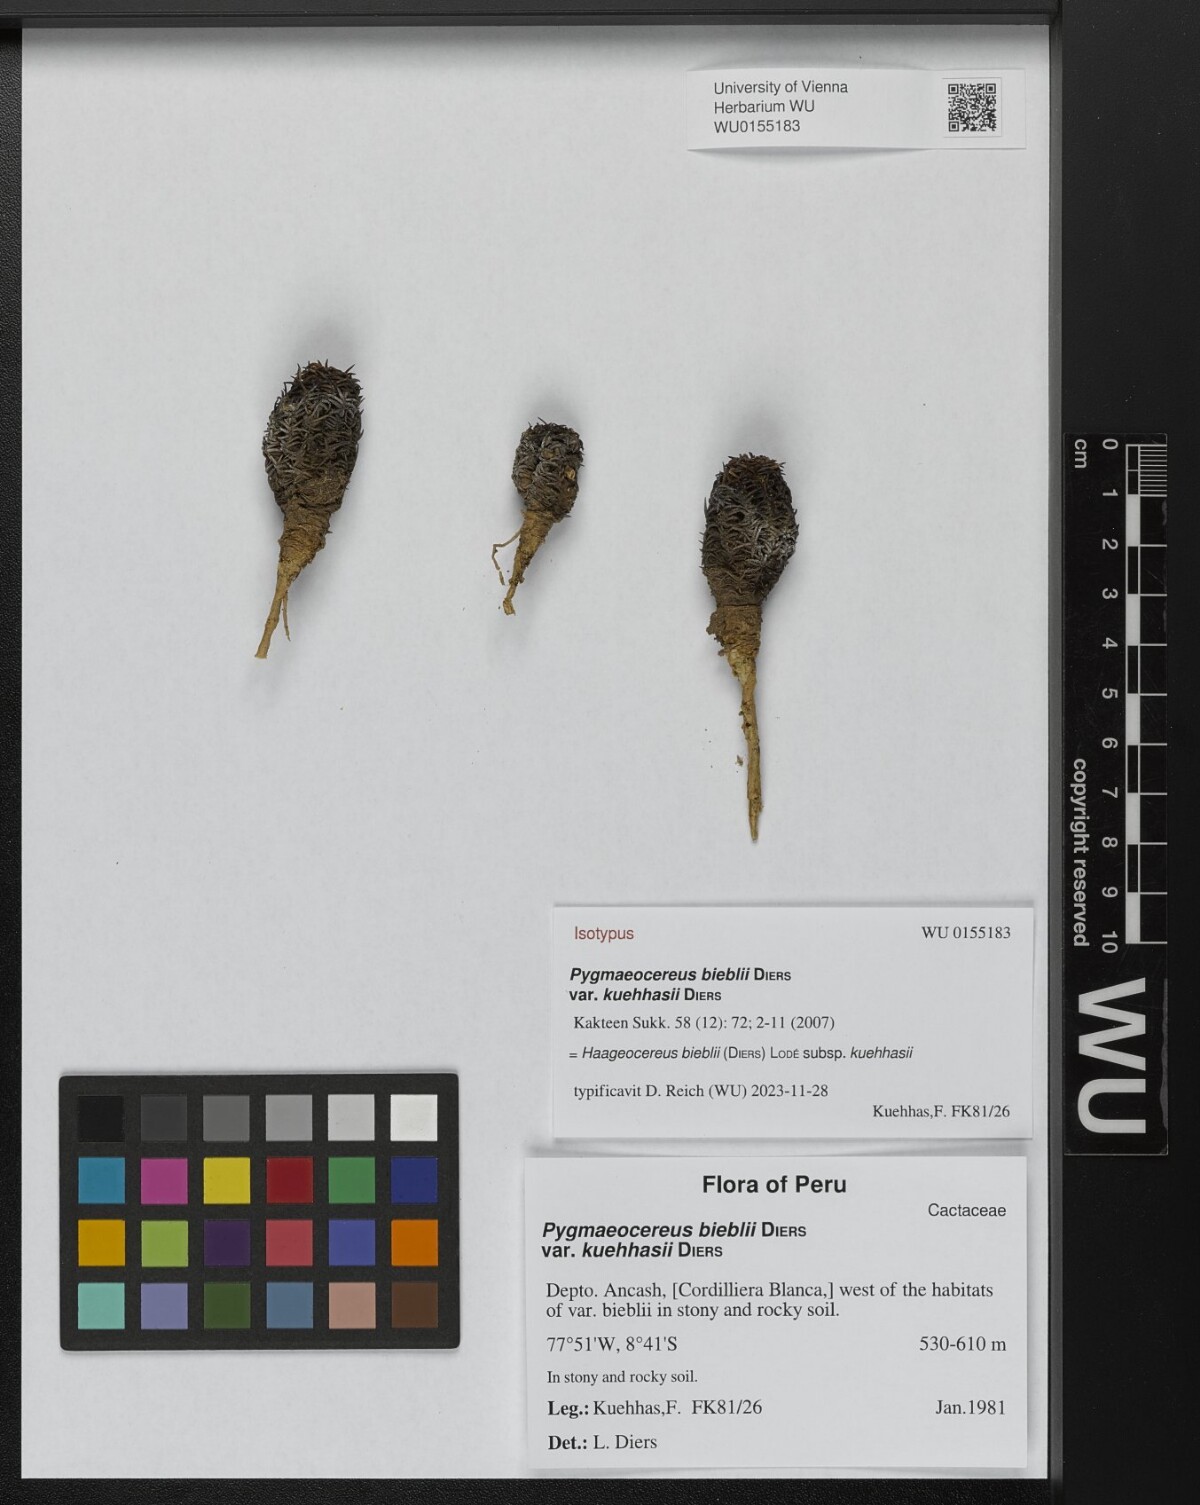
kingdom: Plantae
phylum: Tracheophyta
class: Magnoliopsida
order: Caryophyllales
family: Cactaceae
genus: Haageocereus
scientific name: Haageocereus bieblii
